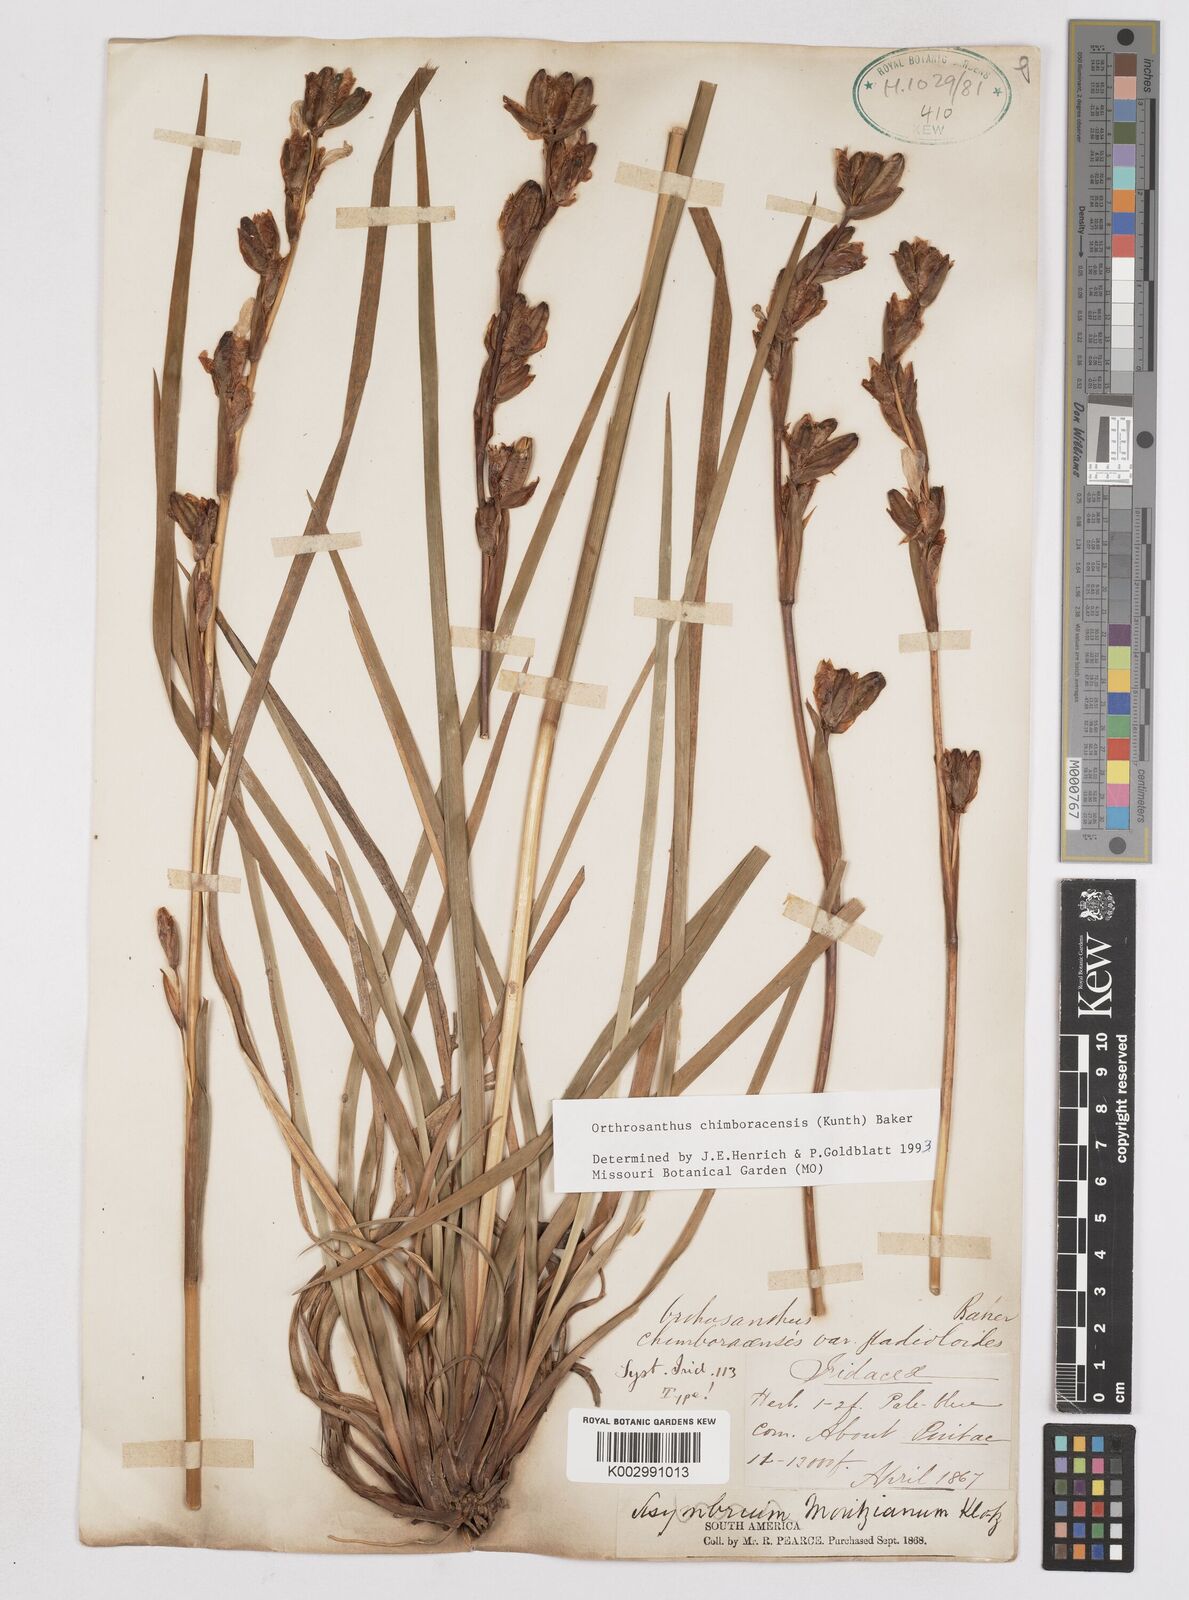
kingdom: Plantae
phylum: Tracheophyta
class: Liliopsida
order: Asparagales
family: Iridaceae
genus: Orthrosanthus
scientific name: Orthrosanthus chimboracensis
